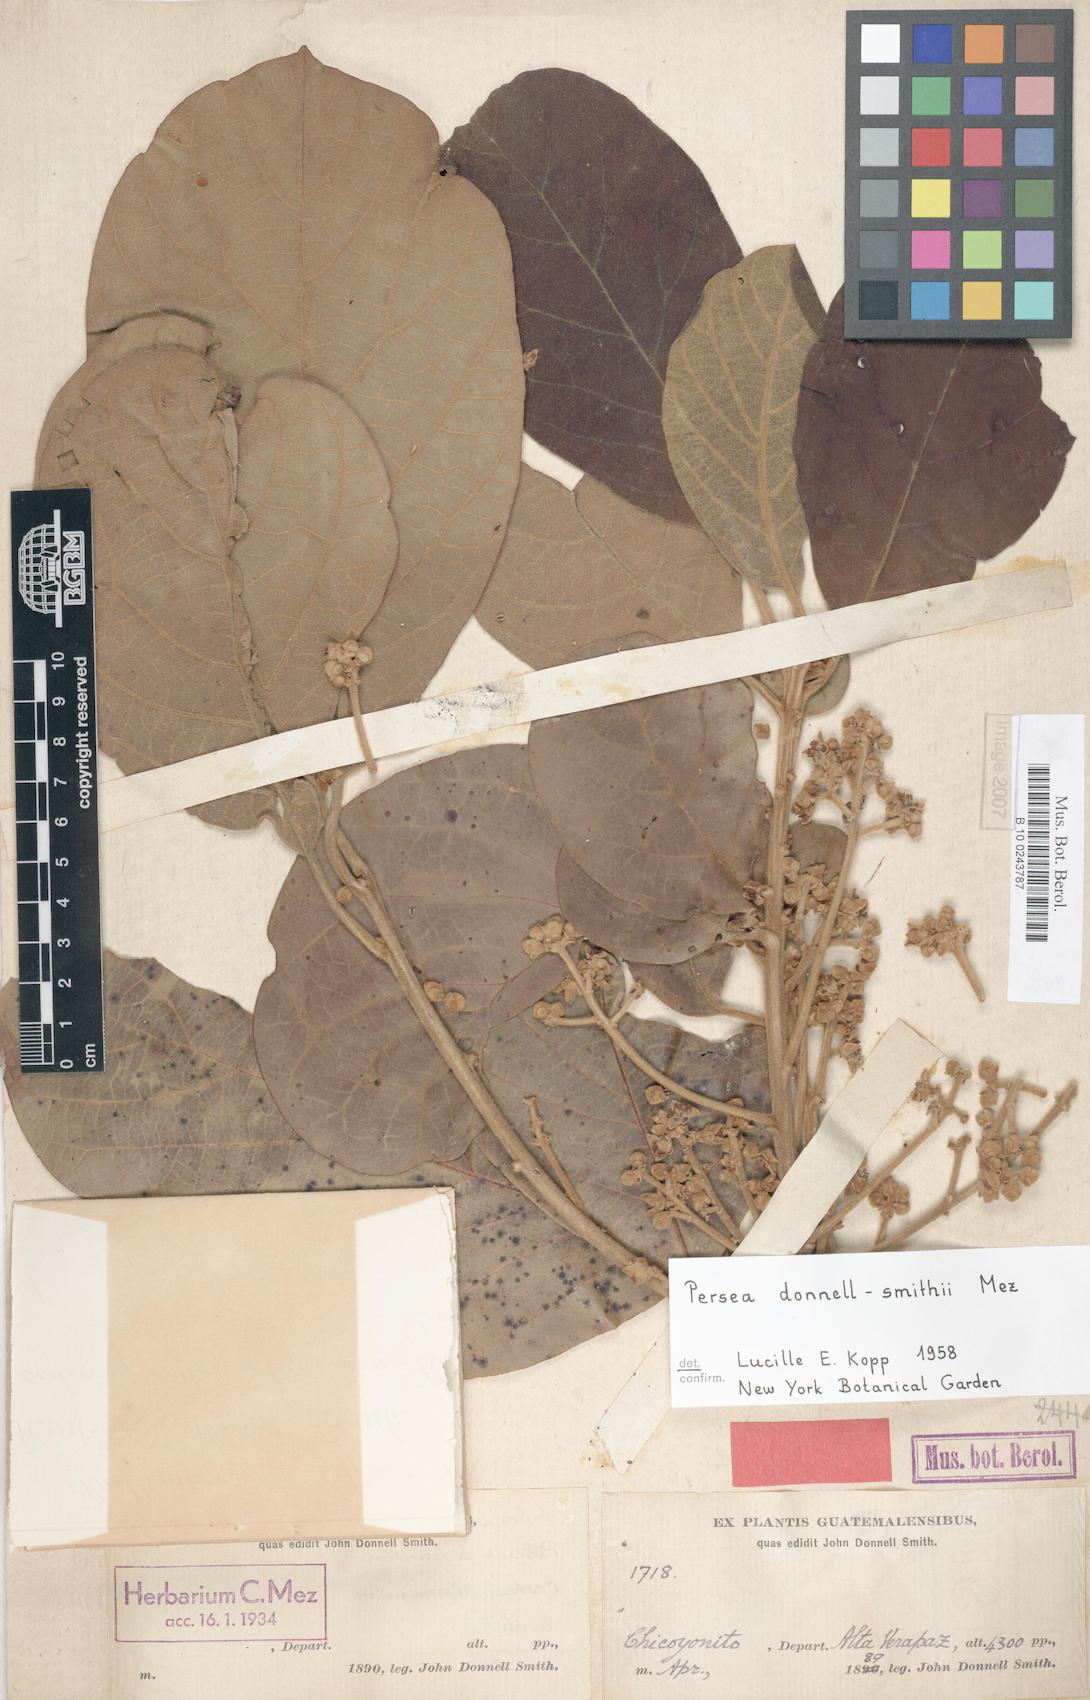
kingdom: Plantae
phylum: Tracheophyta
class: Magnoliopsida
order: Laurales
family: Lauraceae
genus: Persea
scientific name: Persea donnell-smithii
